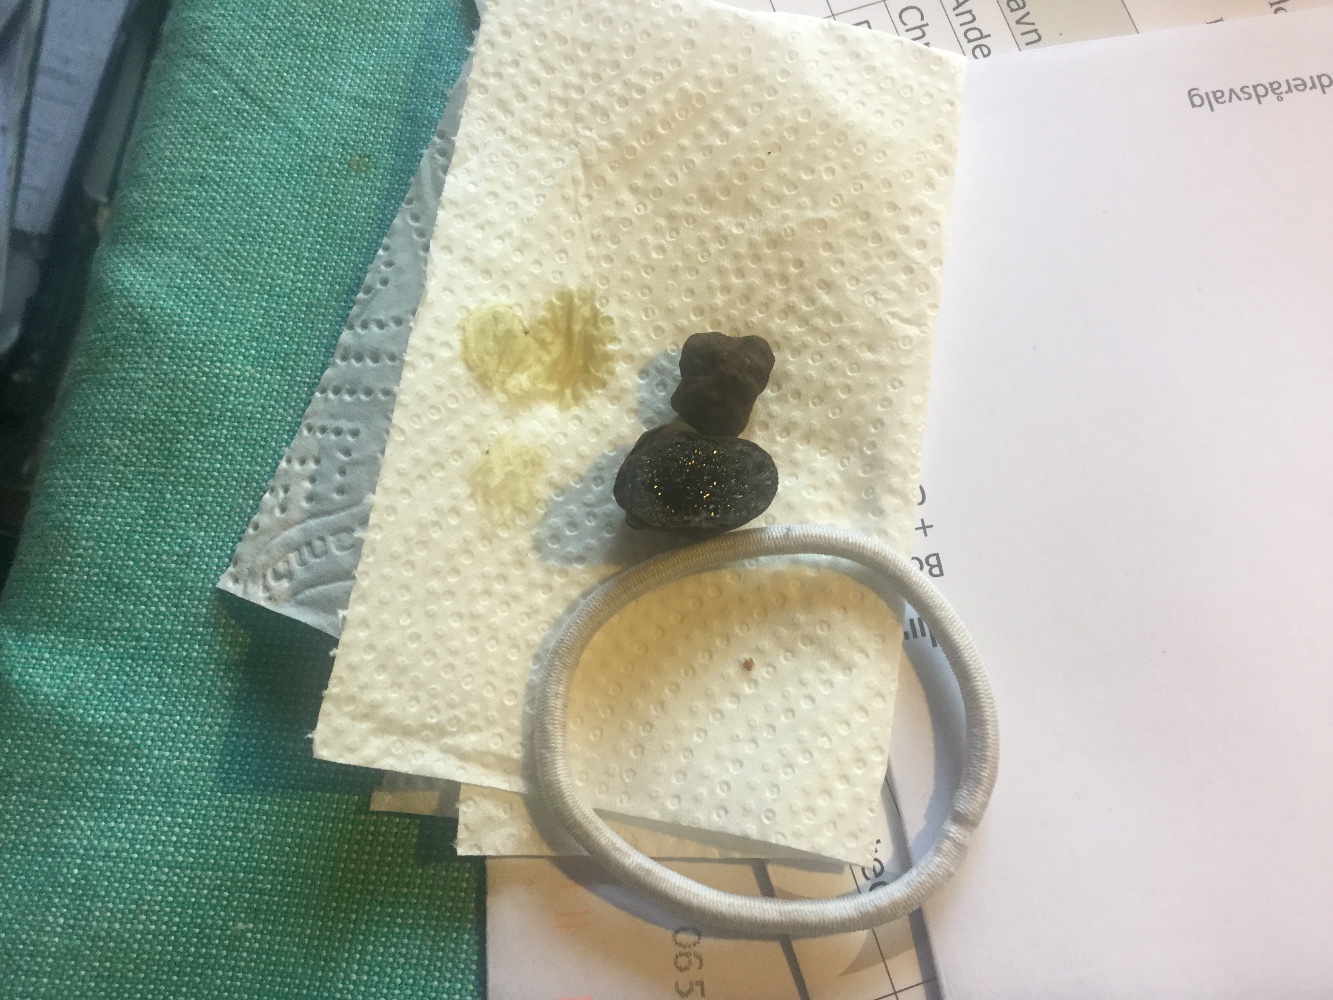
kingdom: Fungi
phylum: Basidiomycota
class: Agaricomycetes
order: Boletales
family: Paxillaceae
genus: Melanogaster
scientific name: Melanogaster ambiguus
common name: lille slimtrøffel
